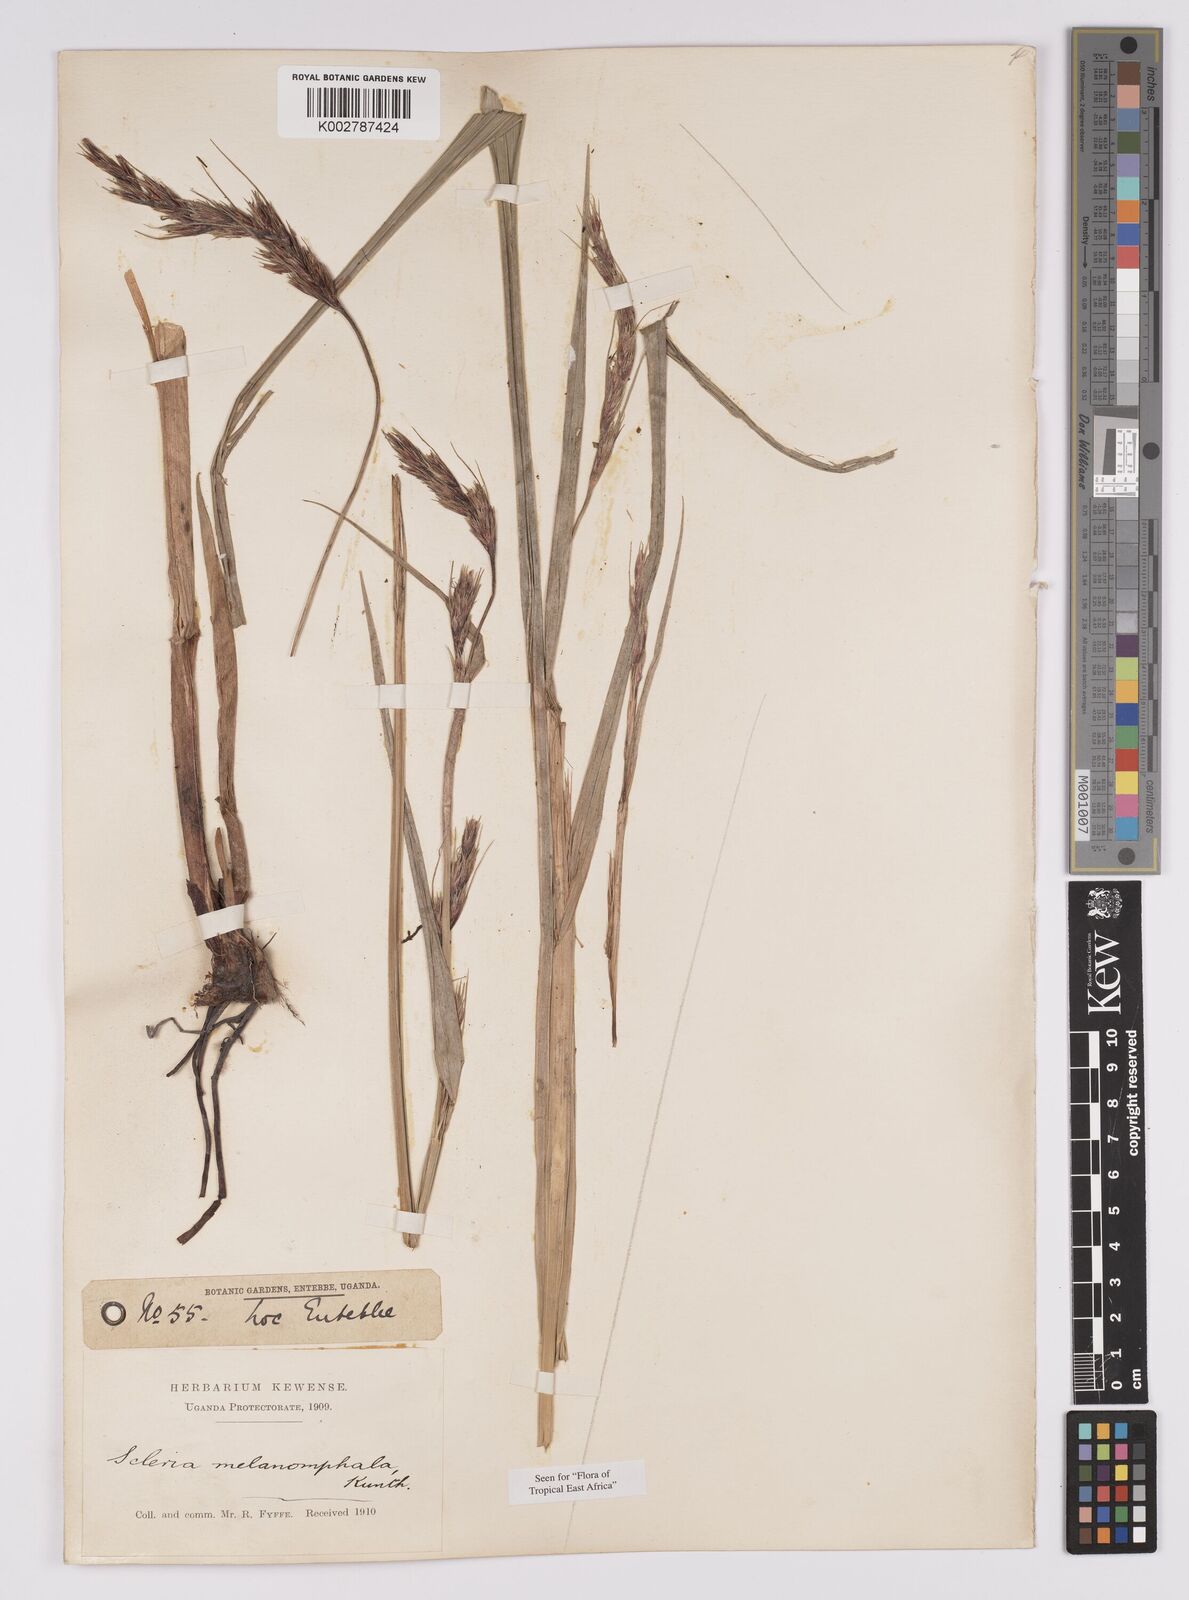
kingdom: Plantae
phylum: Tracheophyta
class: Liliopsida
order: Poales
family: Cyperaceae
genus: Scleria
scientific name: Scleria melanomphala
